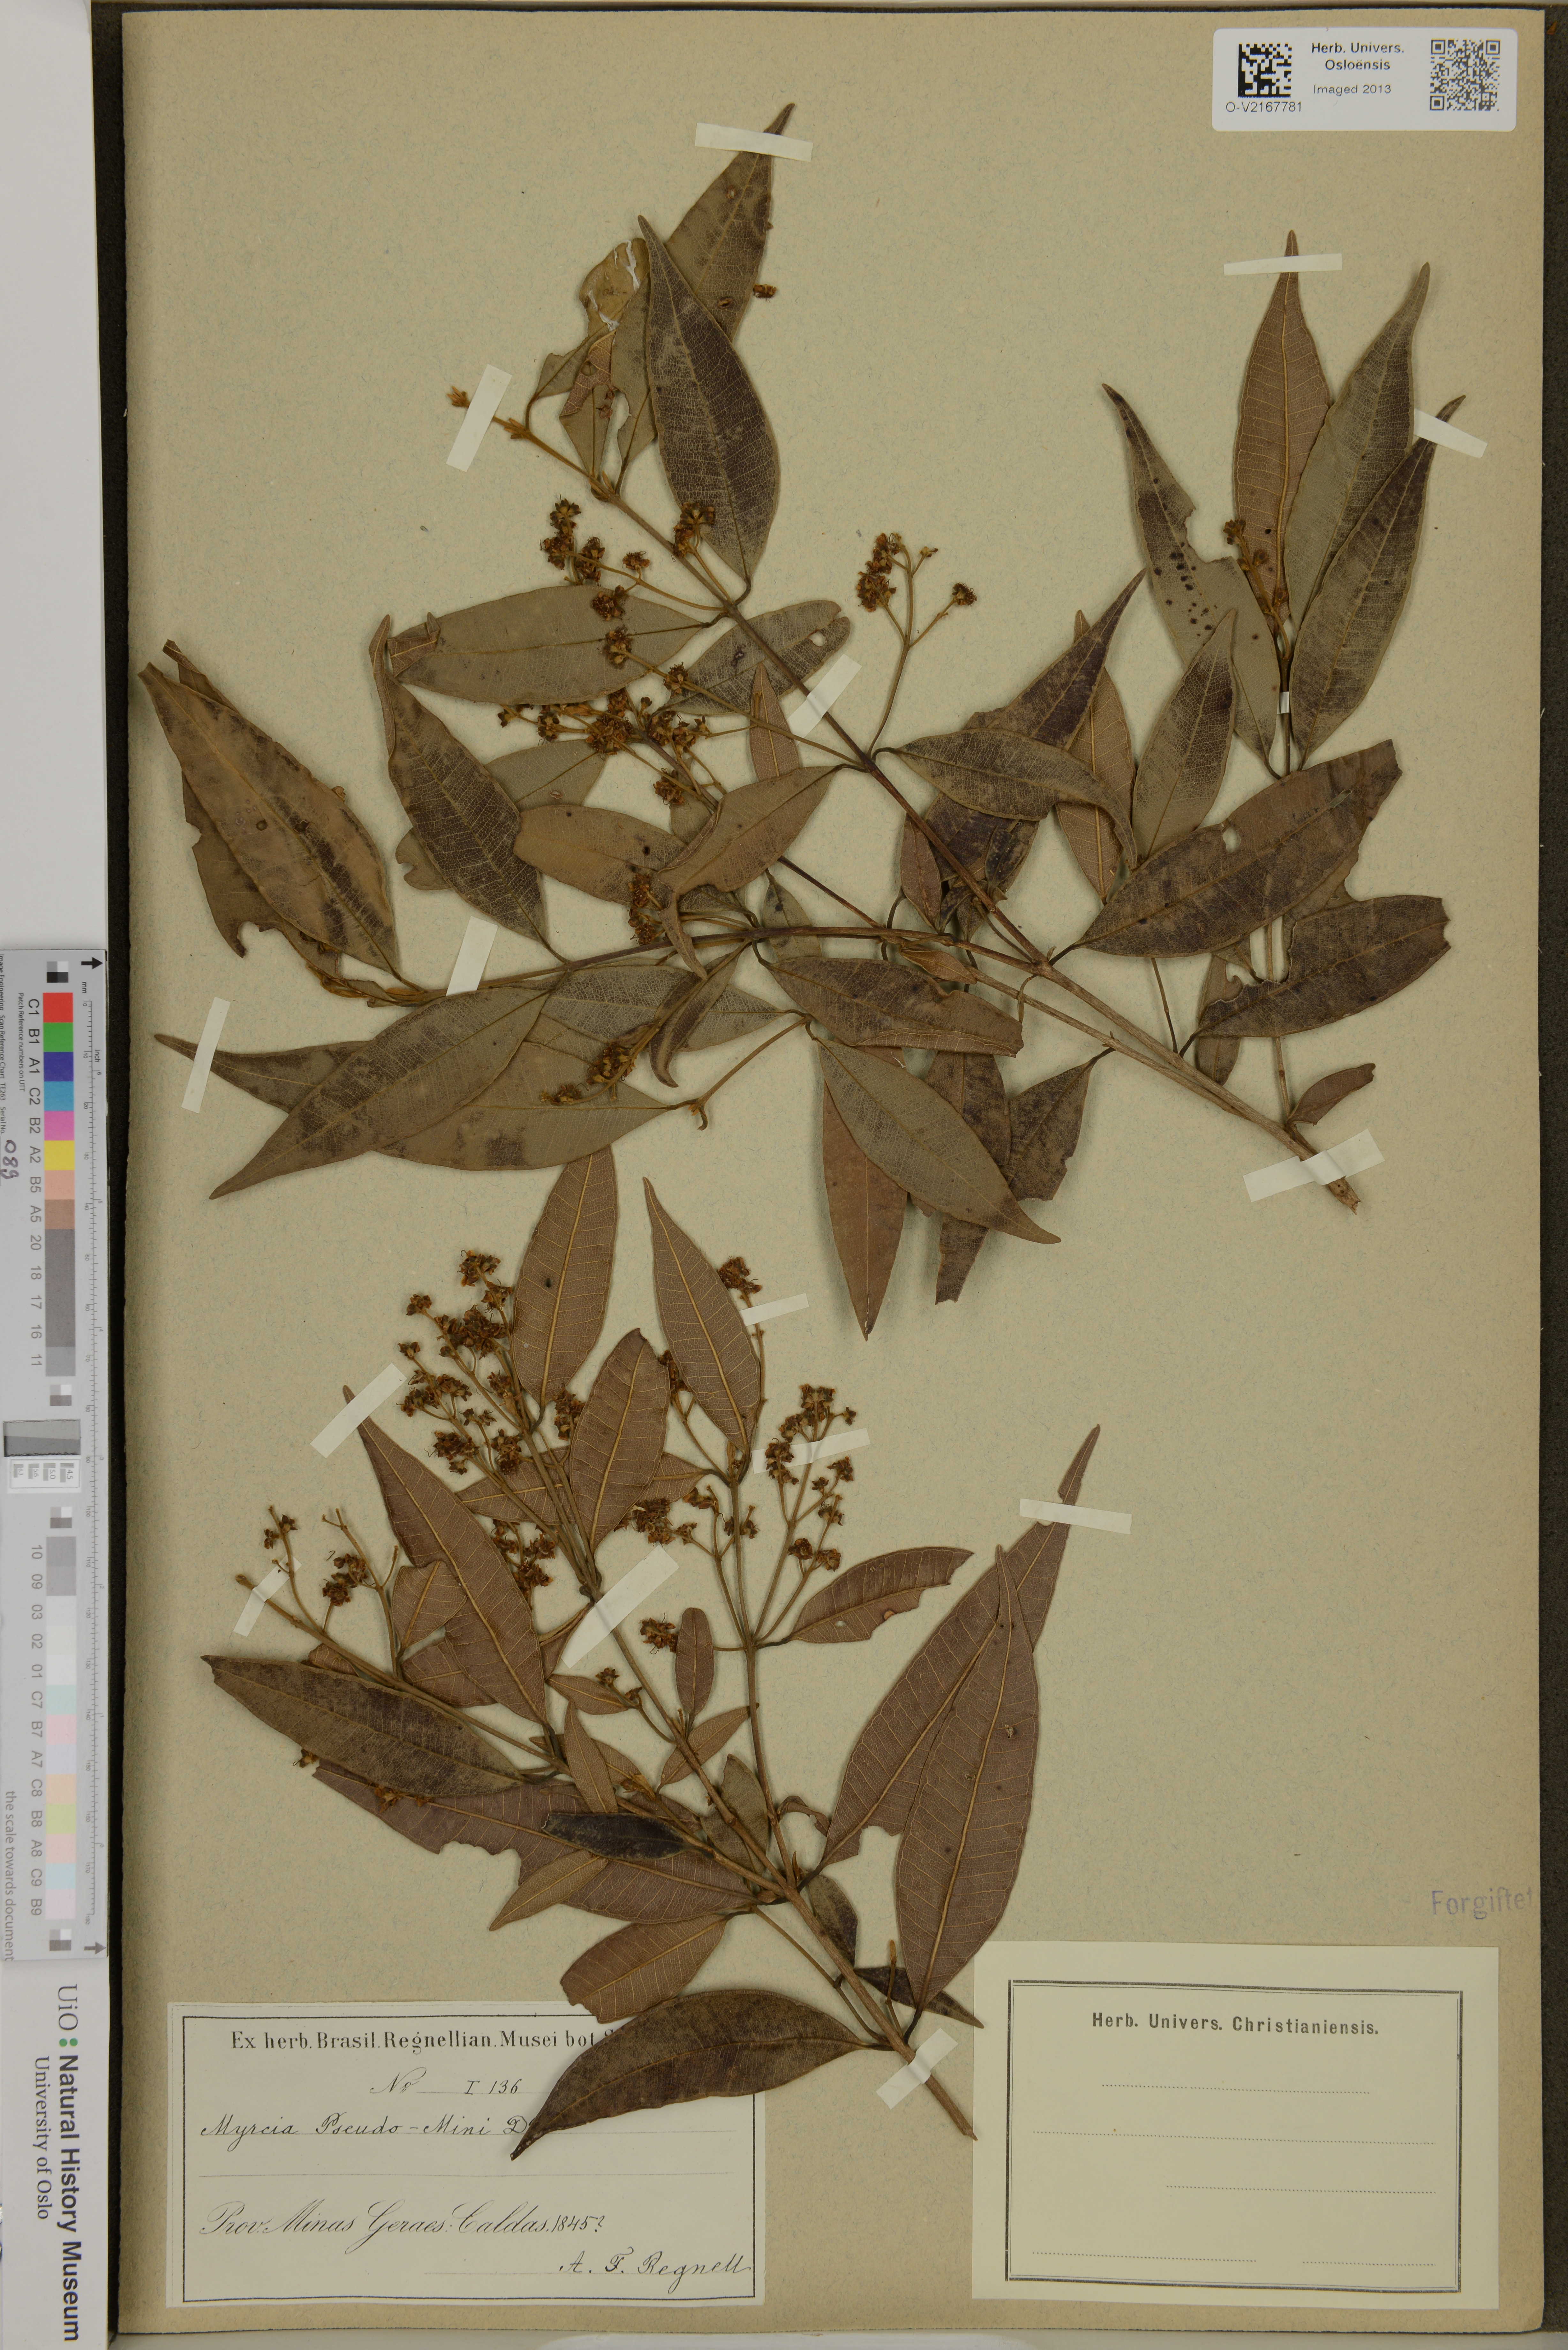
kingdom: Plantae
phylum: Tracheophyta
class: Magnoliopsida
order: Myrtales
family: Myrtaceae
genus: Myrcia
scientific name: Myrcia splendens
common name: Surinam cherry
